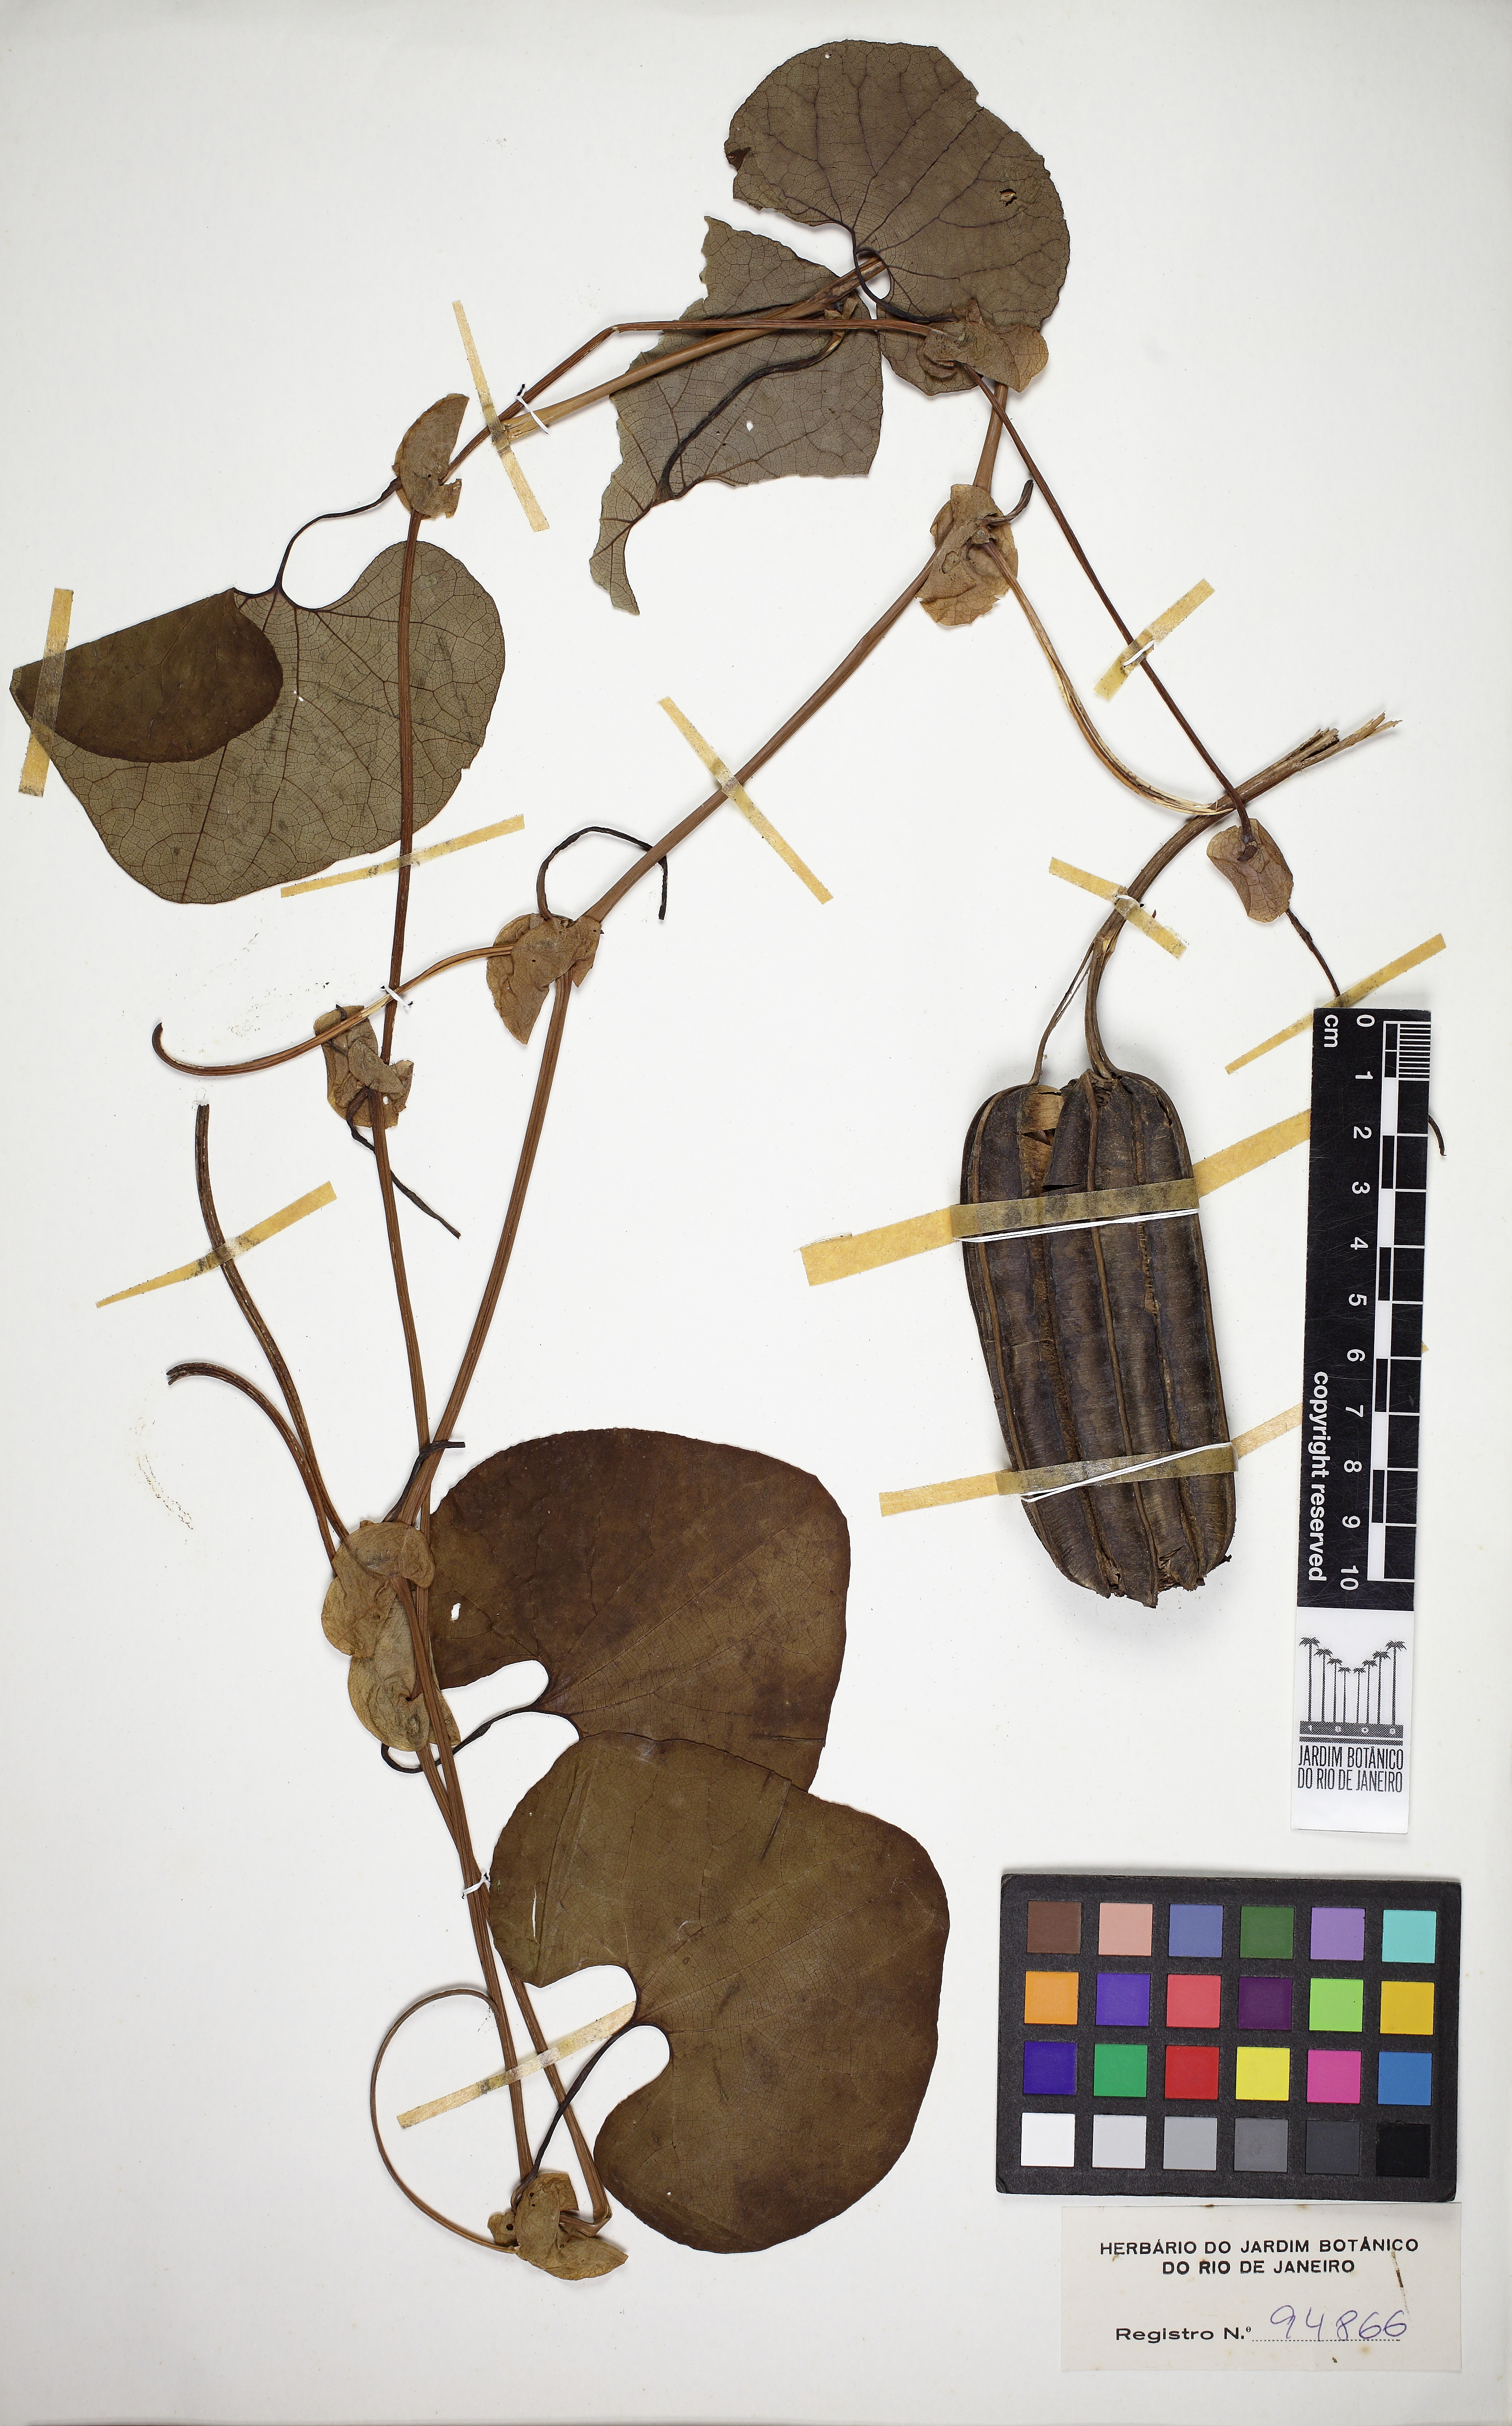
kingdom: Plantae
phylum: Tracheophyta
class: Magnoliopsida
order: Piperales
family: Aristolochiaceae
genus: Aristolochia
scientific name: Aristolochia cymbifera
